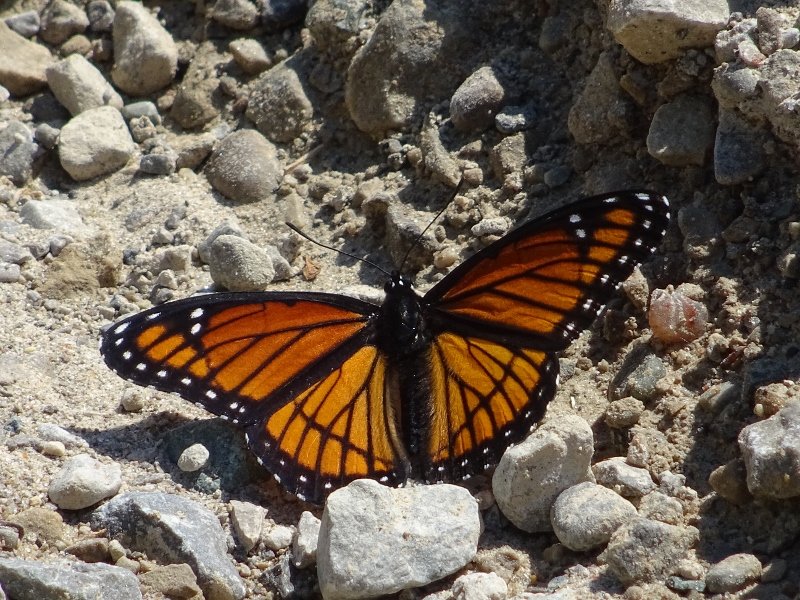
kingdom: Animalia
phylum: Arthropoda
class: Insecta
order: Lepidoptera
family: Nymphalidae
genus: Limenitis
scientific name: Limenitis archippus
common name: Viceroy
